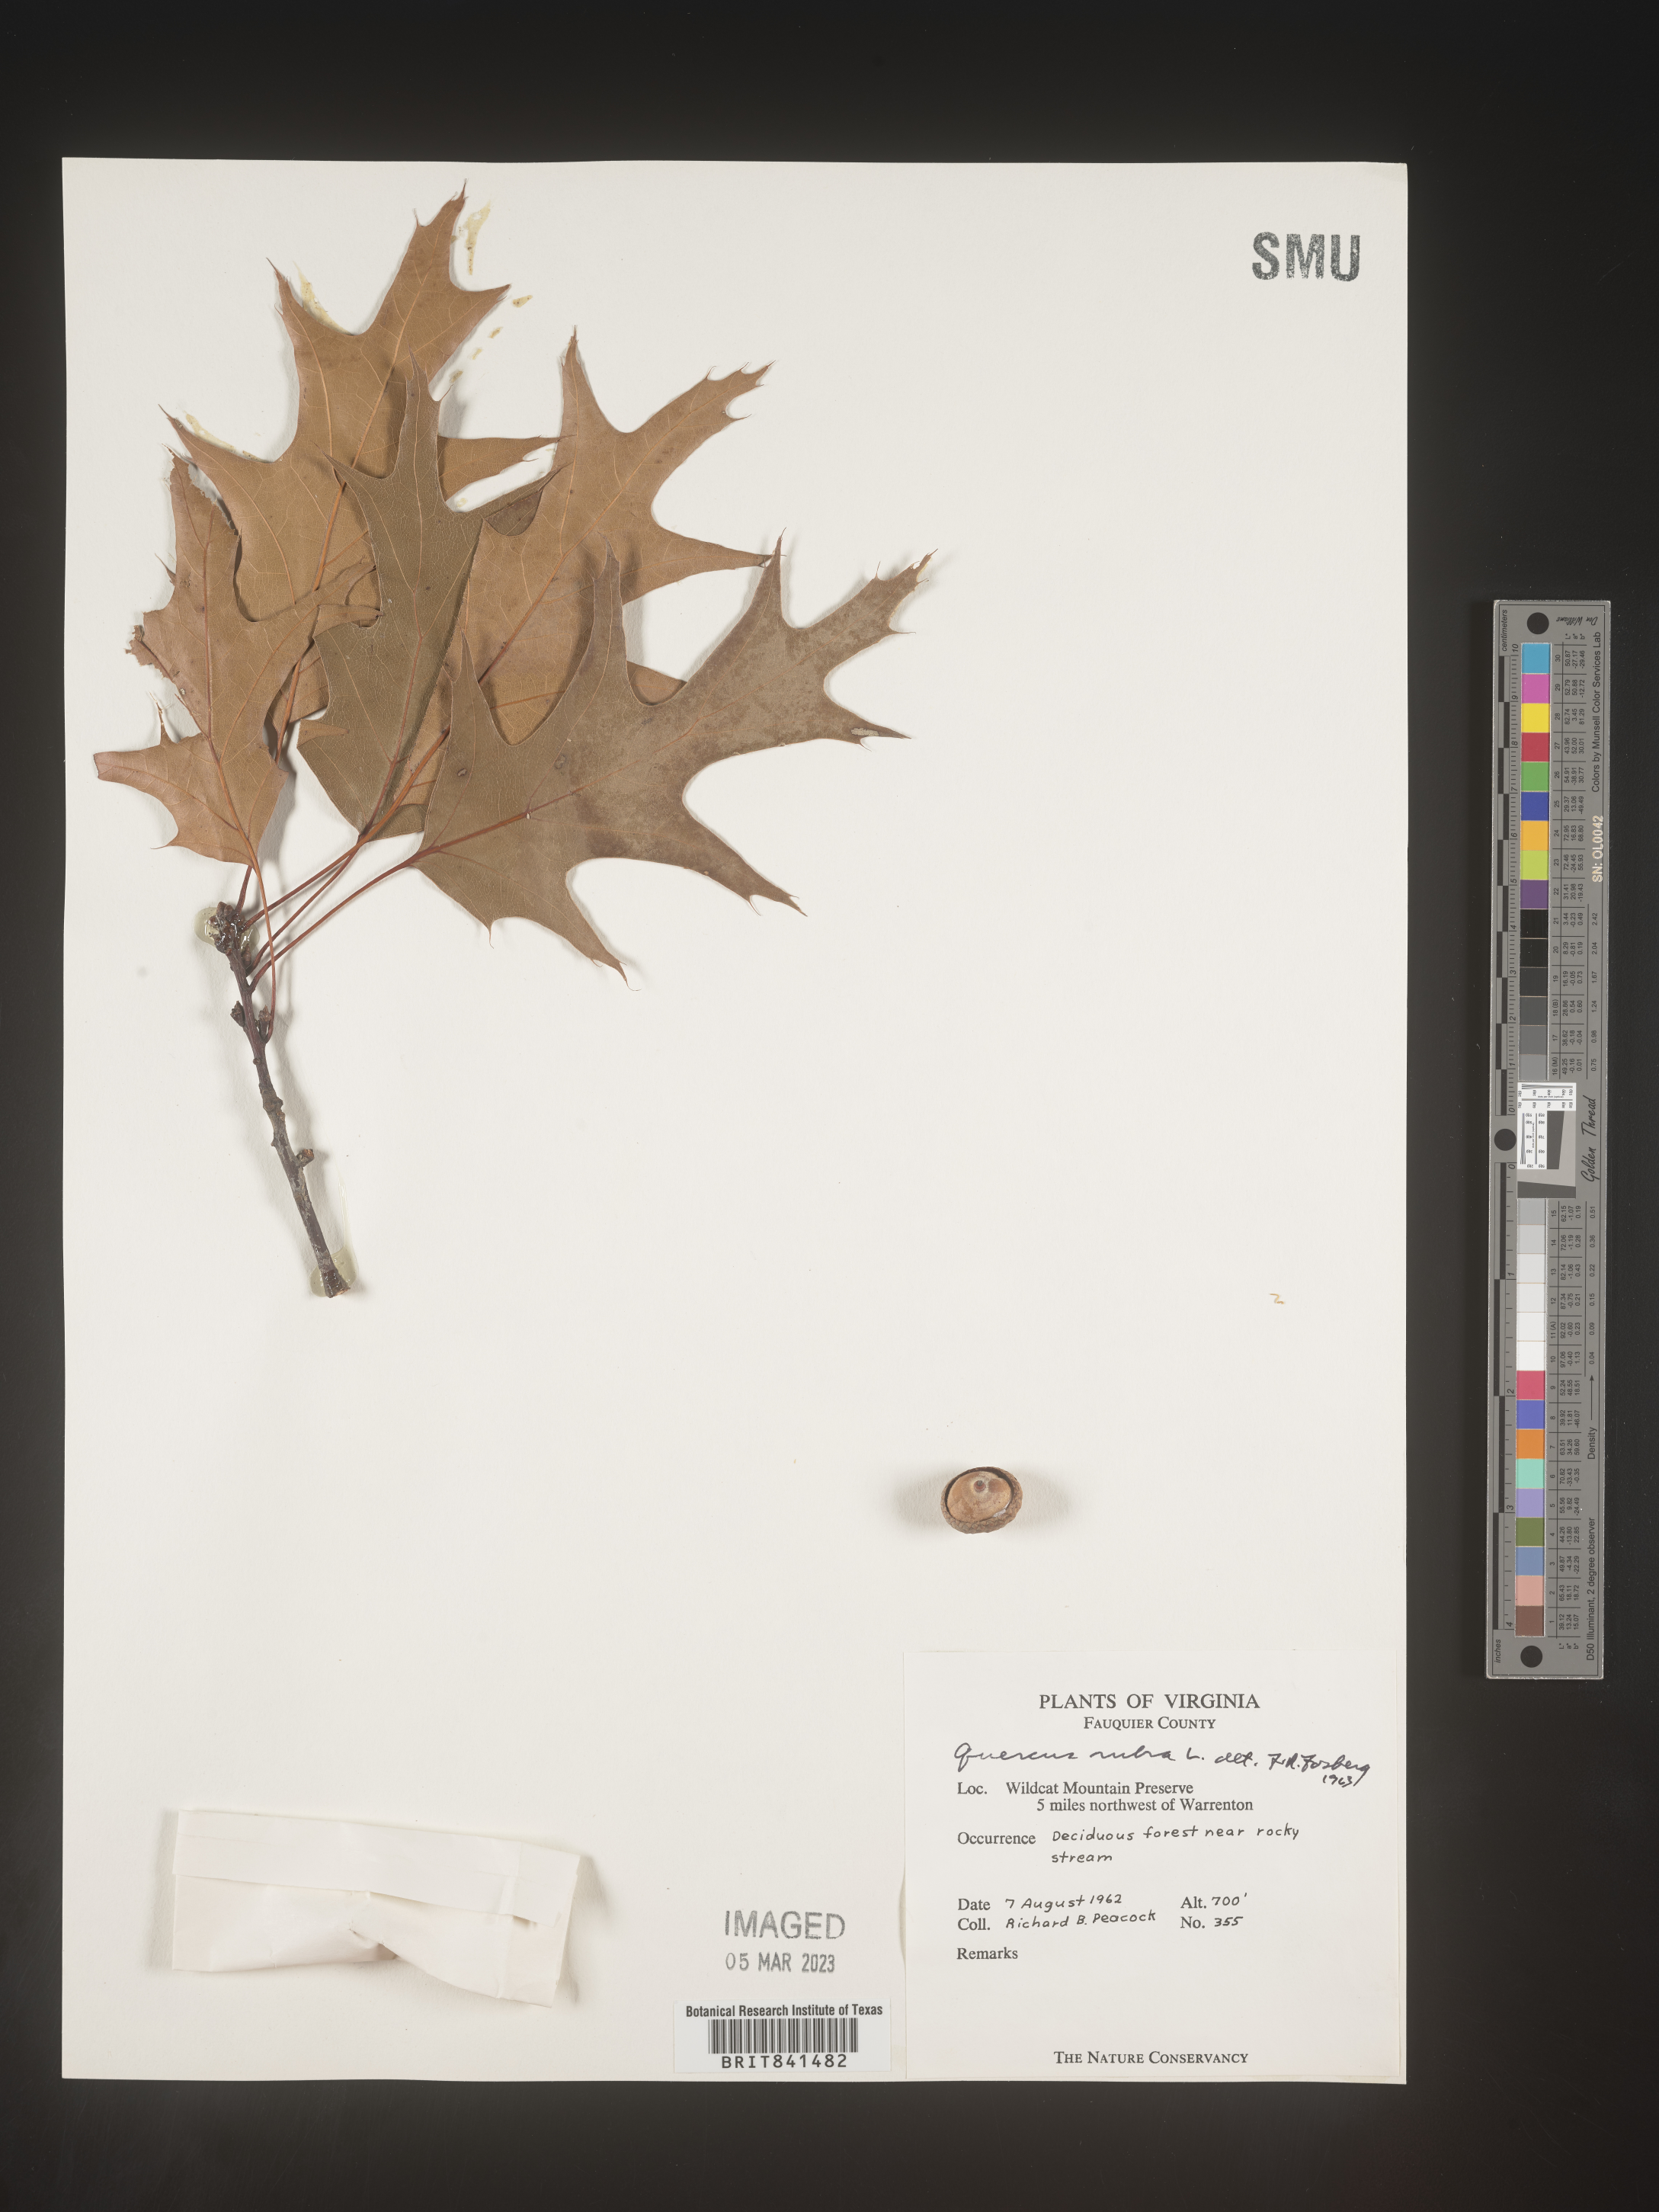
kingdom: Plantae
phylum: Tracheophyta
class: Magnoliopsida
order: Fagales
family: Fagaceae
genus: Quercus
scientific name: Quercus rubra
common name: Red oak
